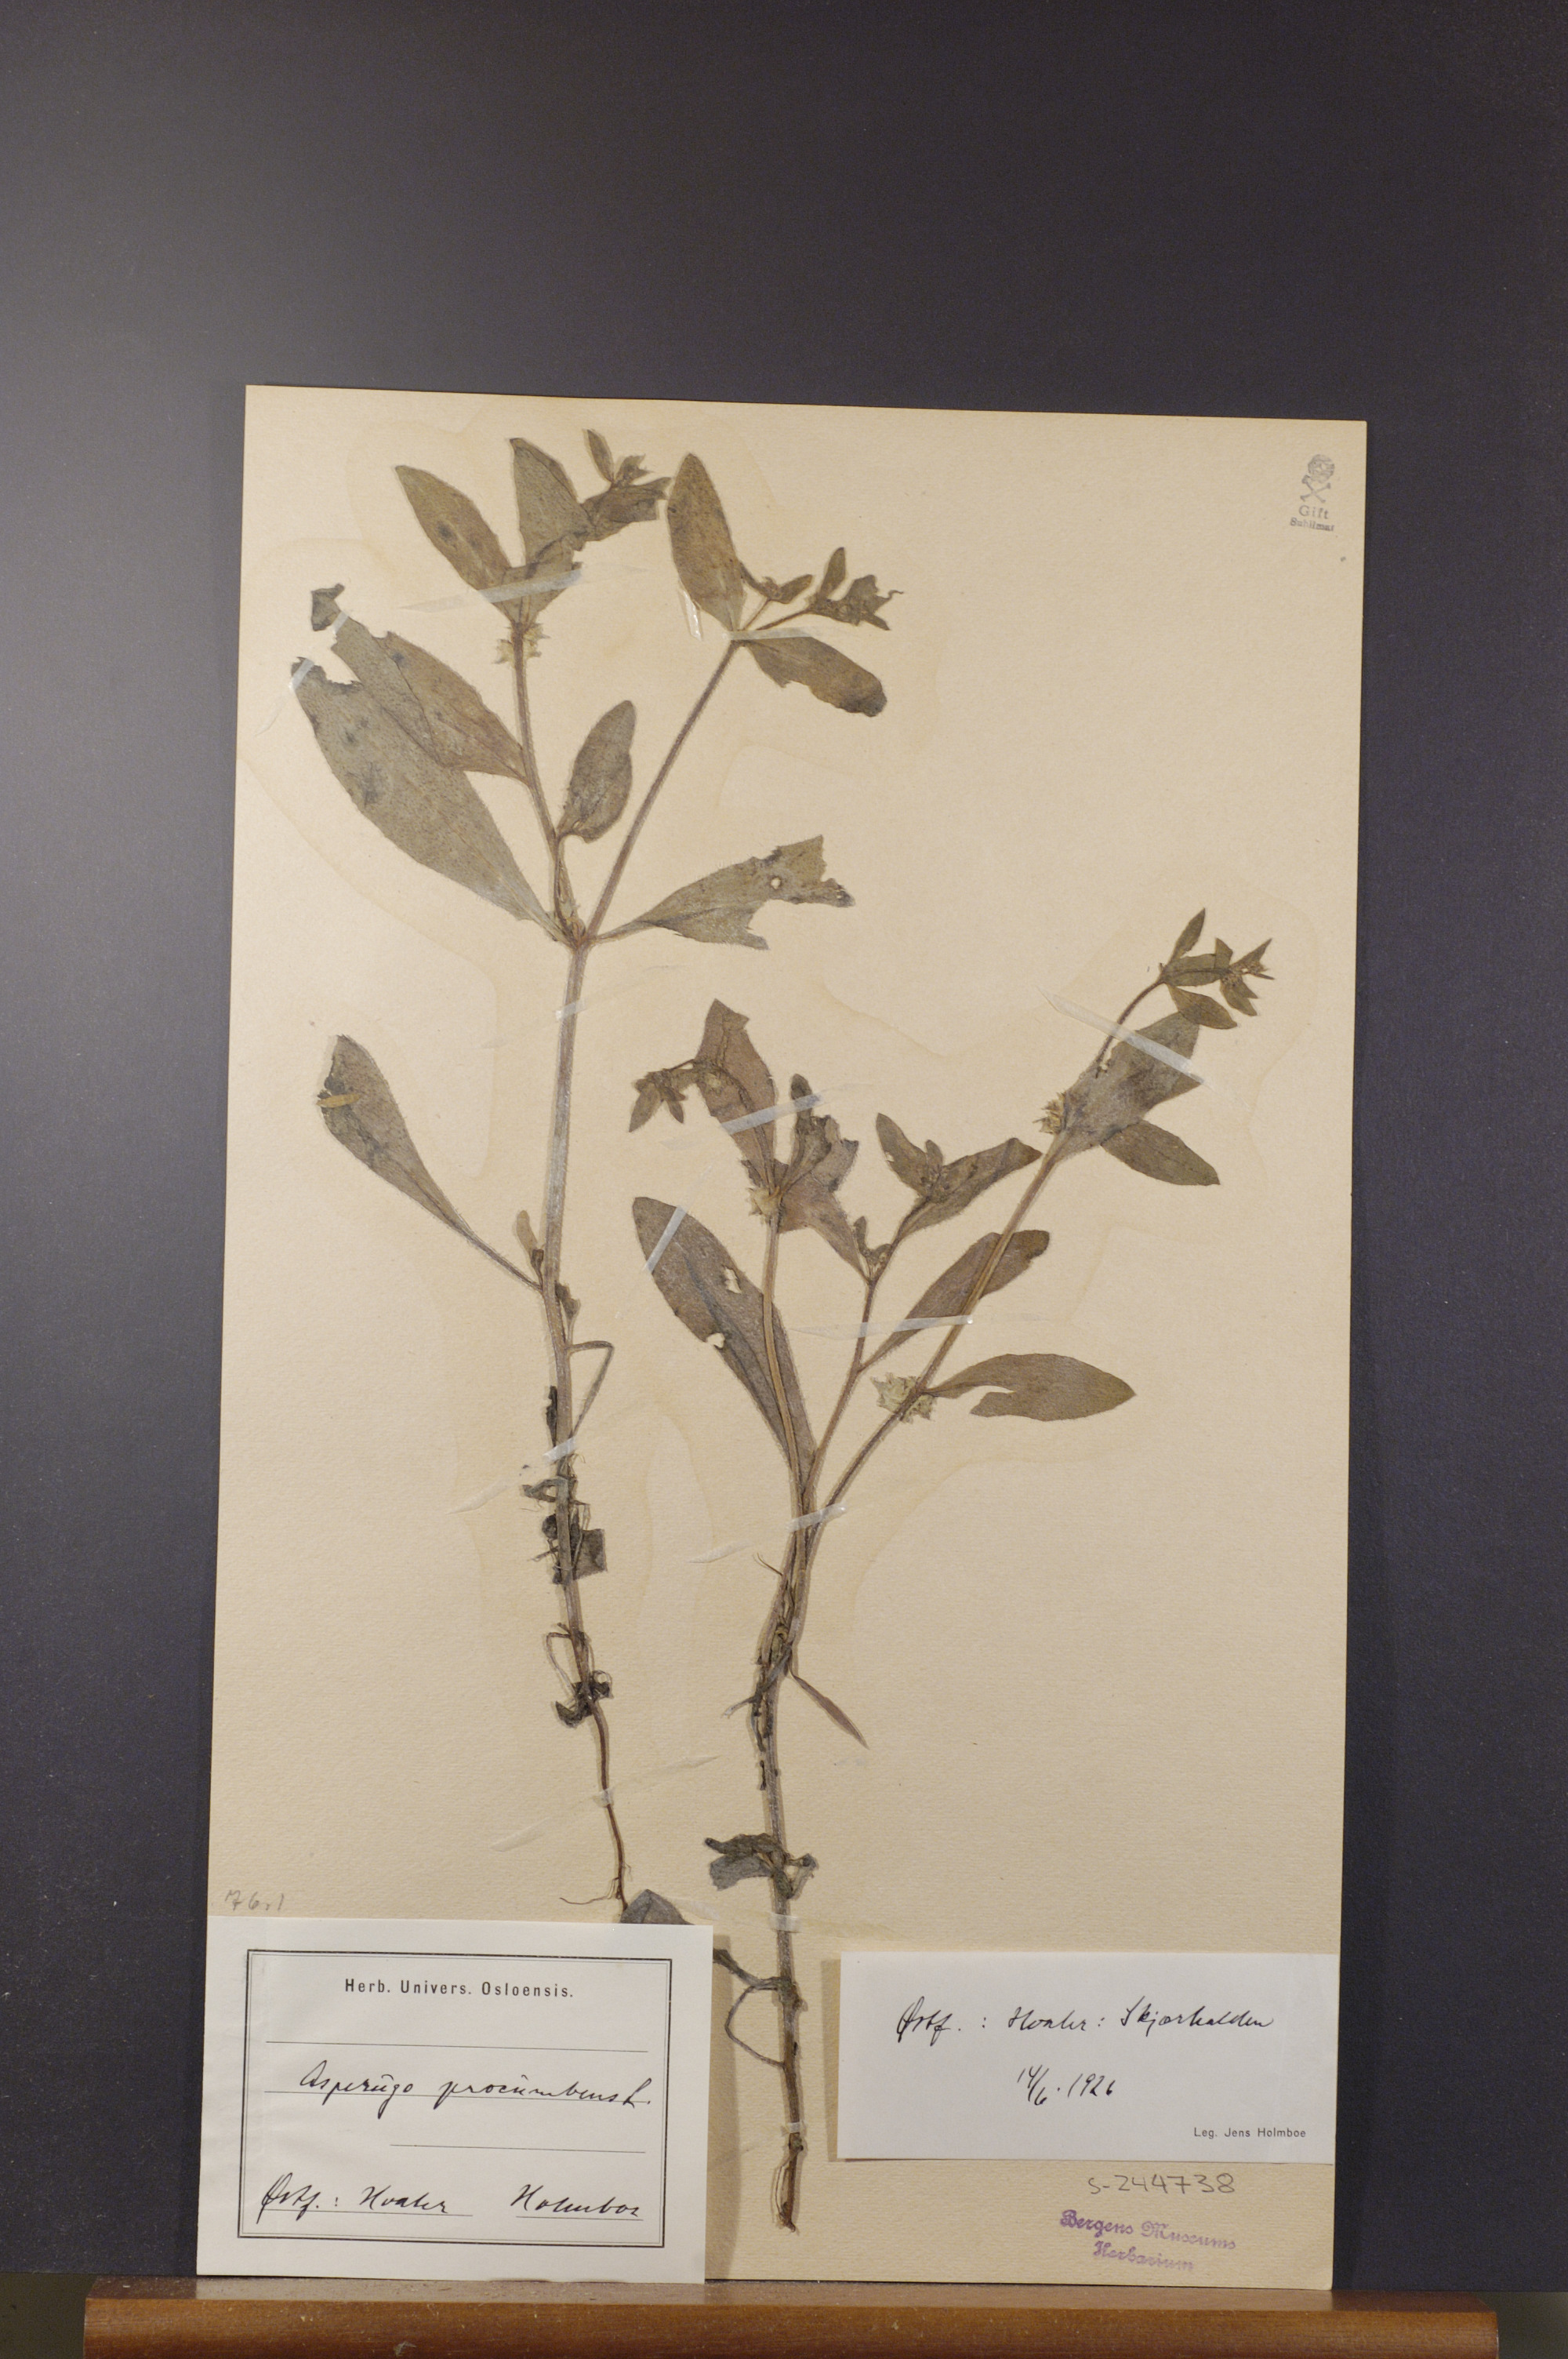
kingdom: Plantae
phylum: Tracheophyta
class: Magnoliopsida
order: Boraginales
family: Boraginaceae
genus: Asperugo
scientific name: Asperugo procumbens
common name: Madwort
